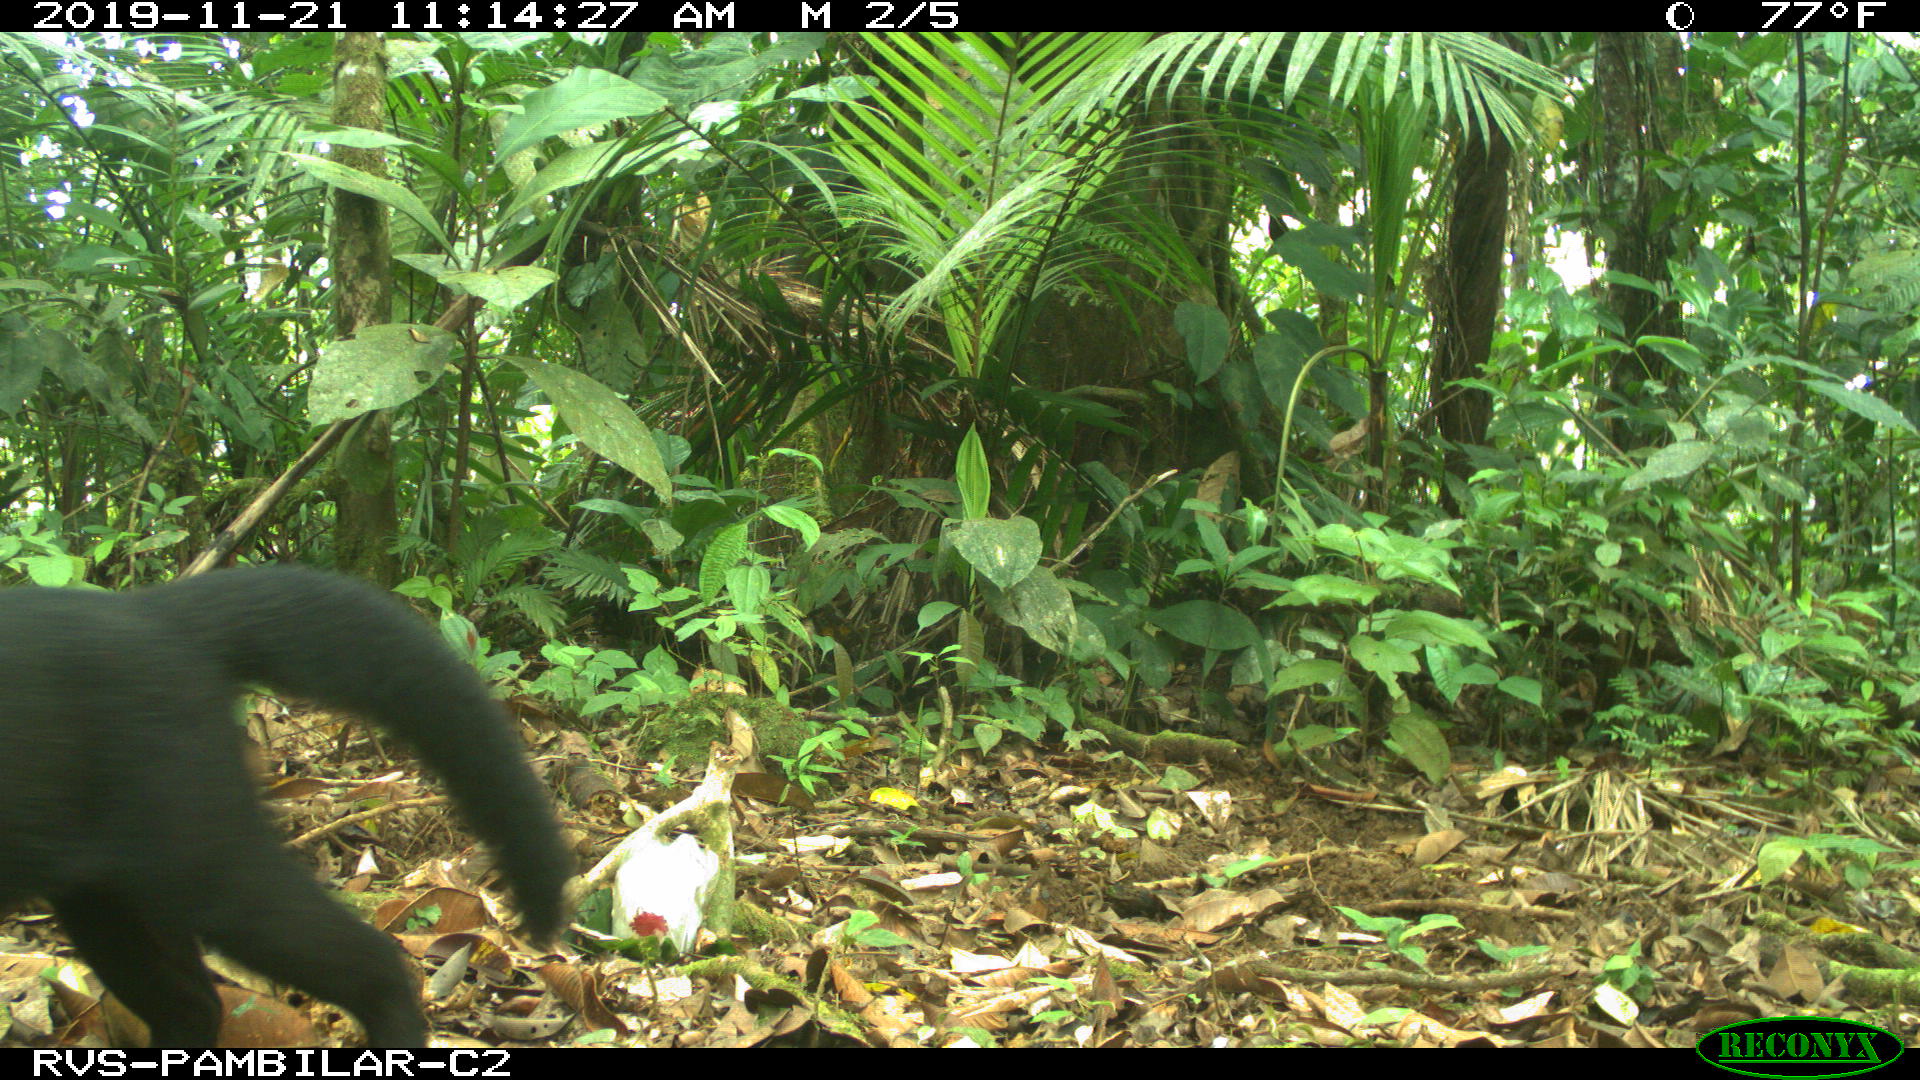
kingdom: Animalia
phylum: Chordata
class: Mammalia
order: Carnivora
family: Mustelidae
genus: Eira
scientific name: Eira barbara
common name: Tayra
